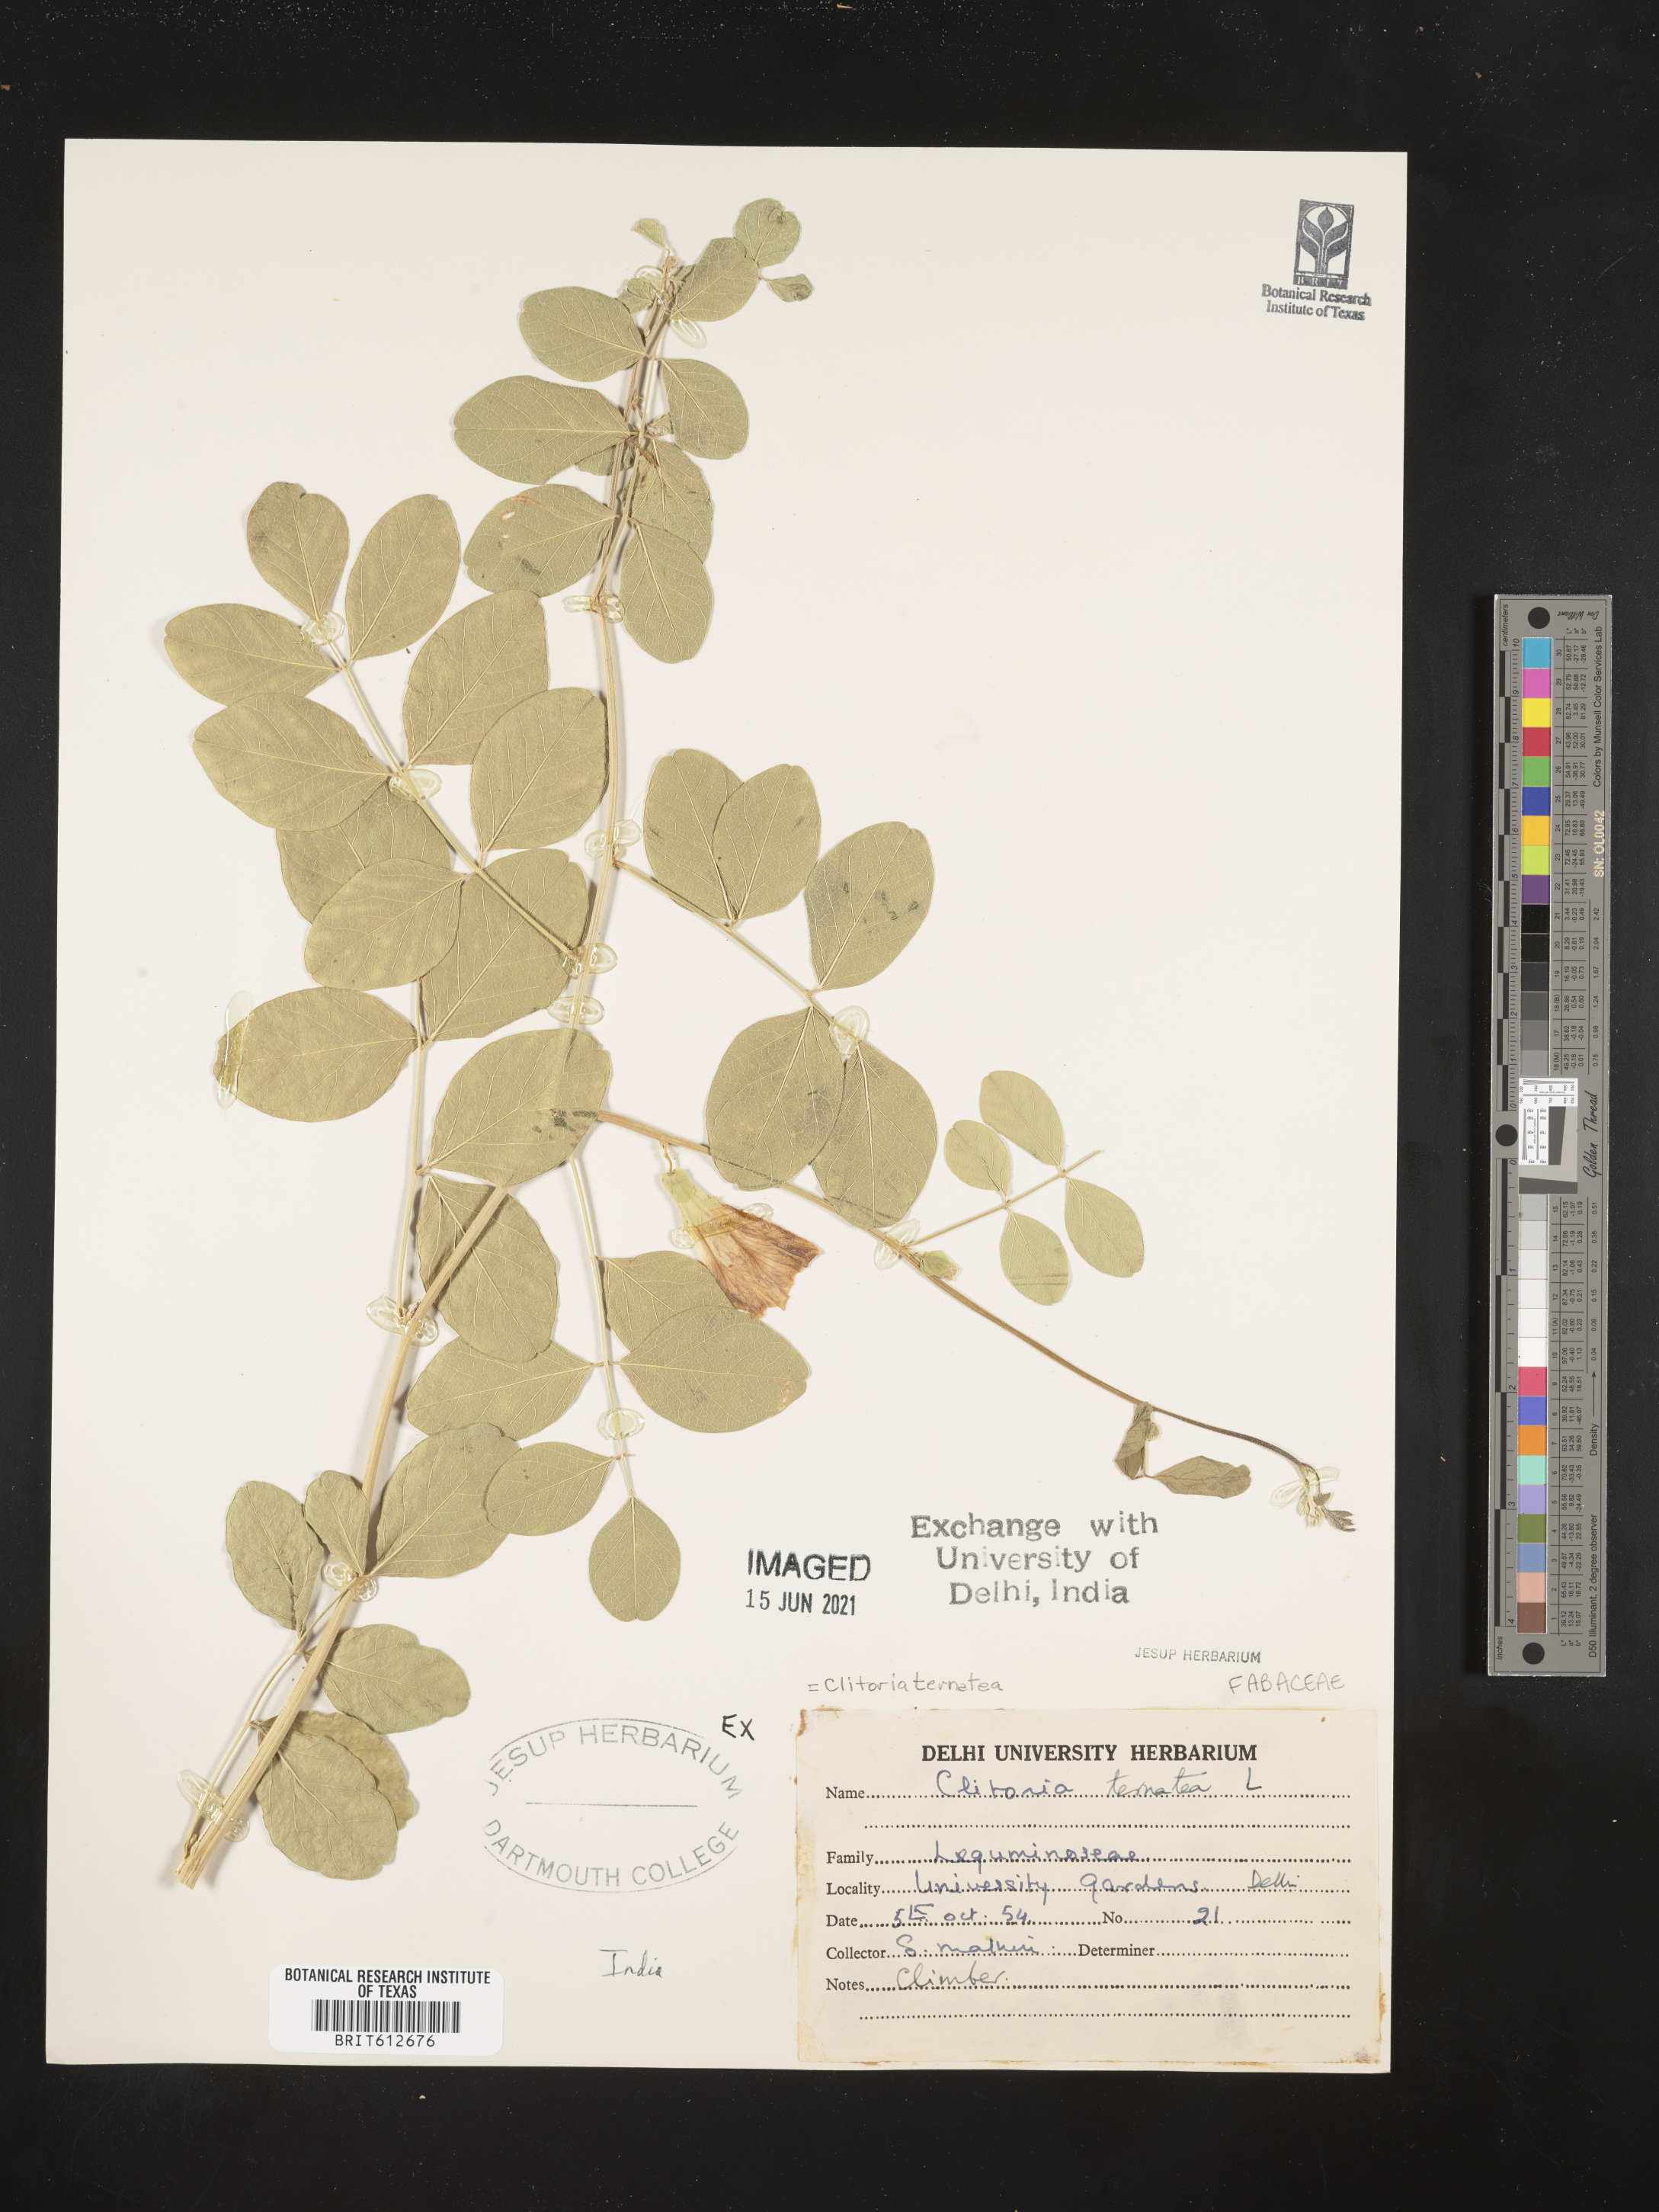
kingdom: Plantae
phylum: Tracheophyta
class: Magnoliopsida
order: Fabales
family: Fabaceae
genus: Clitoria
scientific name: Clitoria ternatea
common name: Asian pigeonwings
